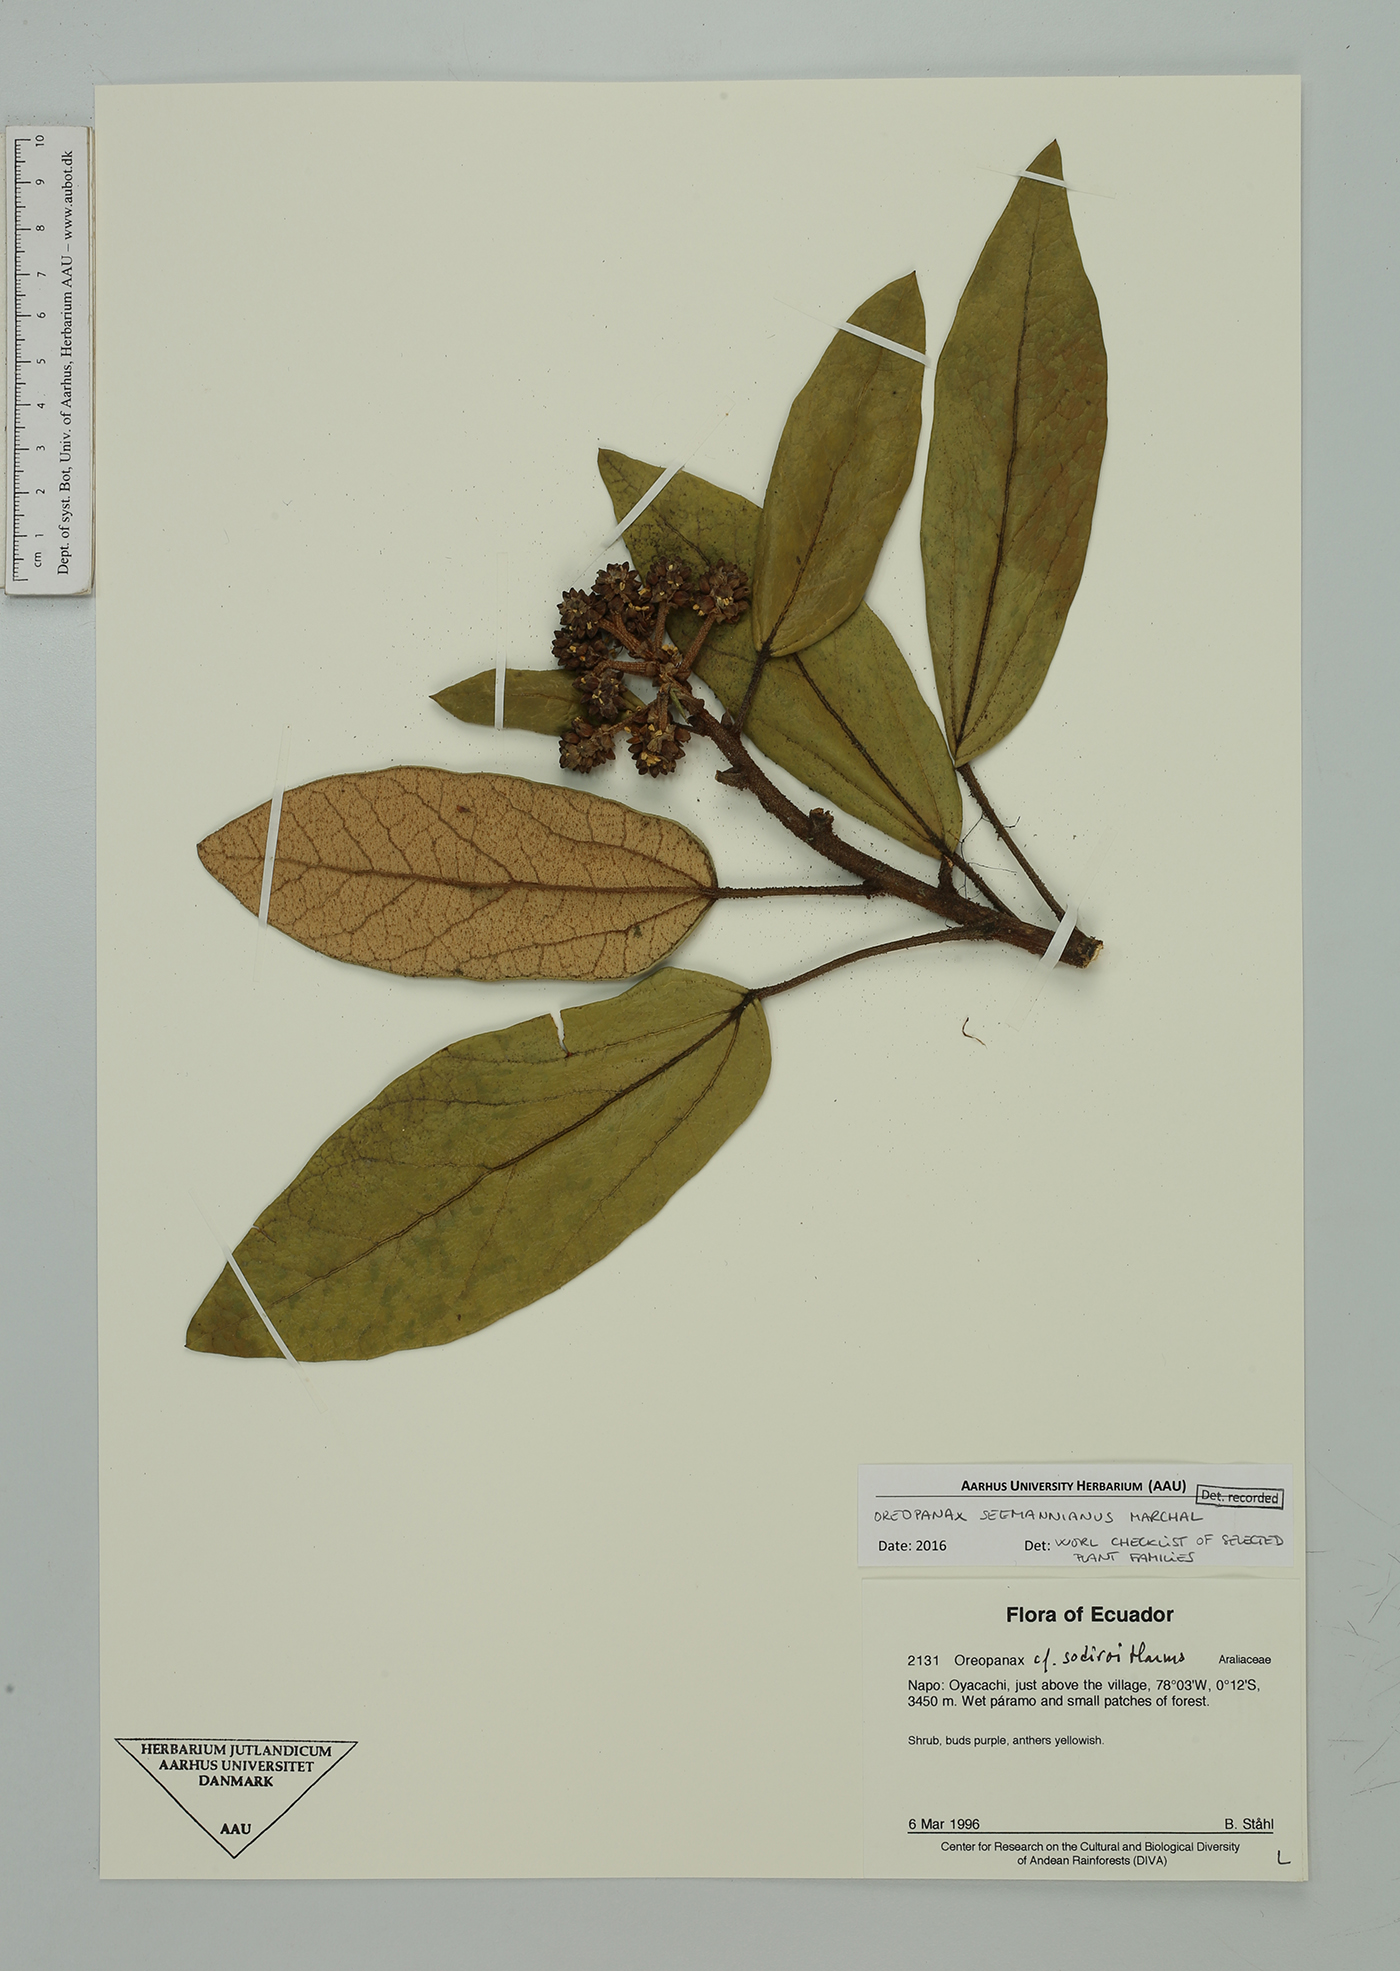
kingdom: Plantae
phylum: Tracheophyta
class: Magnoliopsida
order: Apiales
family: Araliaceae
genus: Oreopanax
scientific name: Oreopanax seemannianus
